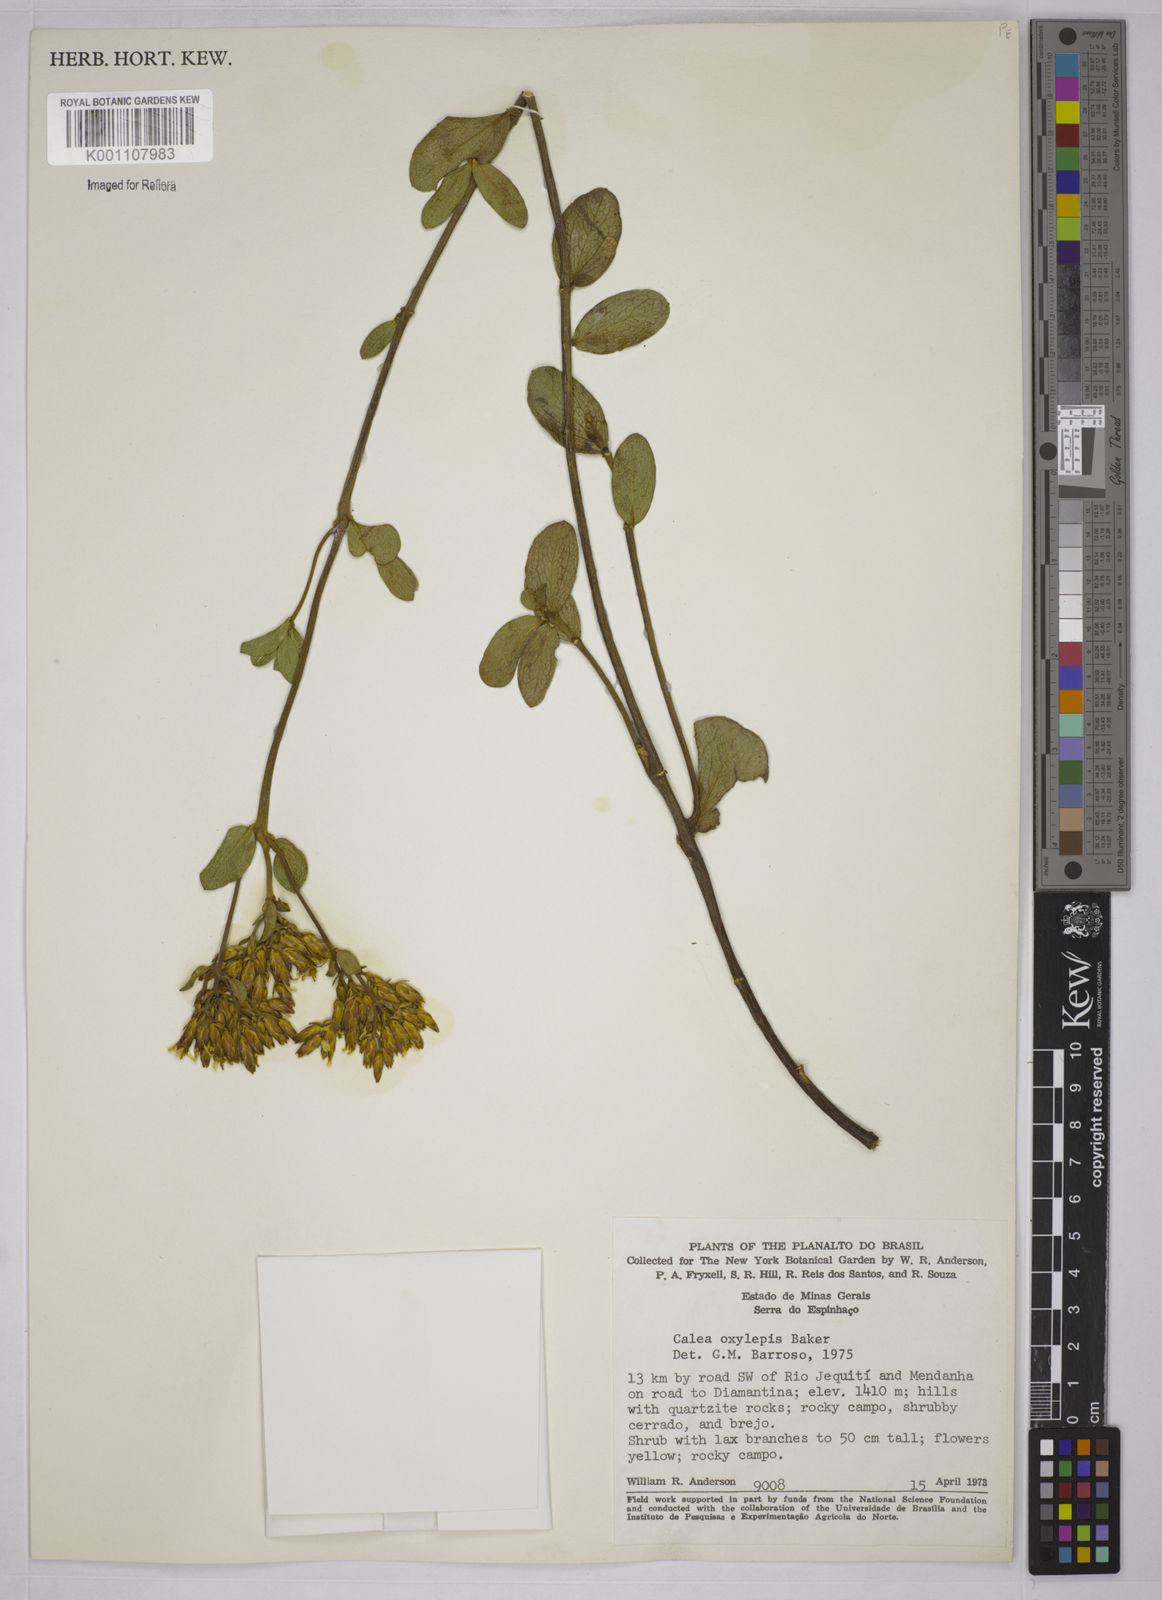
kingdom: Plantae
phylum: Tracheophyta
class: Magnoliopsida
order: Asterales
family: Asteraceae
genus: Calea
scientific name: Calea oxylepis
